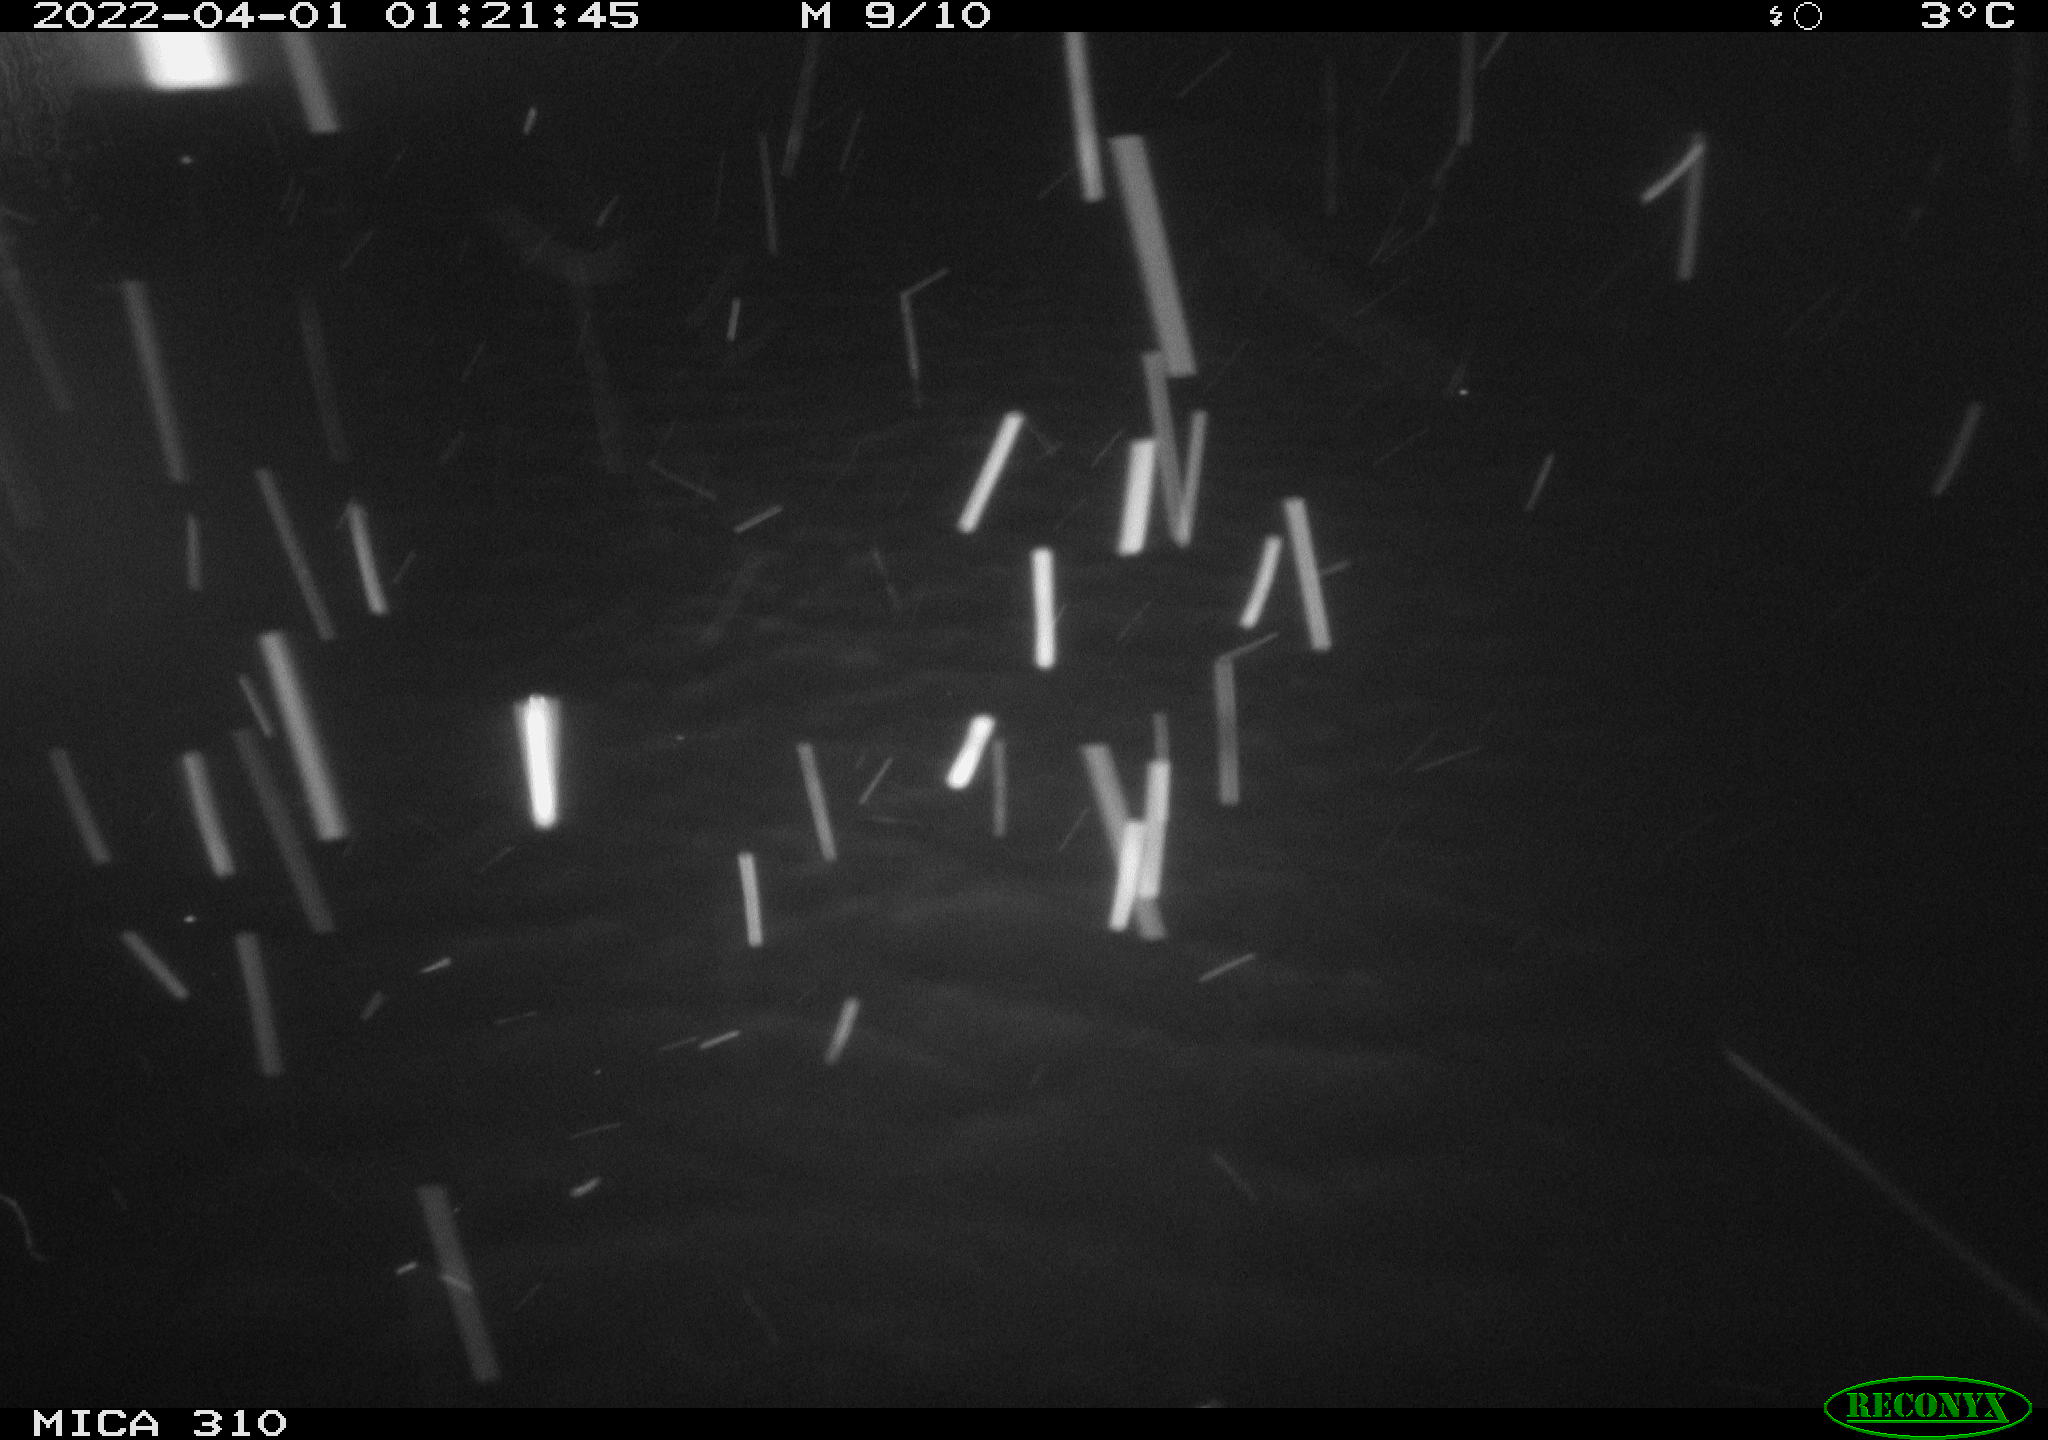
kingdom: Animalia
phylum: Chordata
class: Aves
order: Anseriformes
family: Anatidae
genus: Anas
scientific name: Anas platyrhynchos
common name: Mallard
